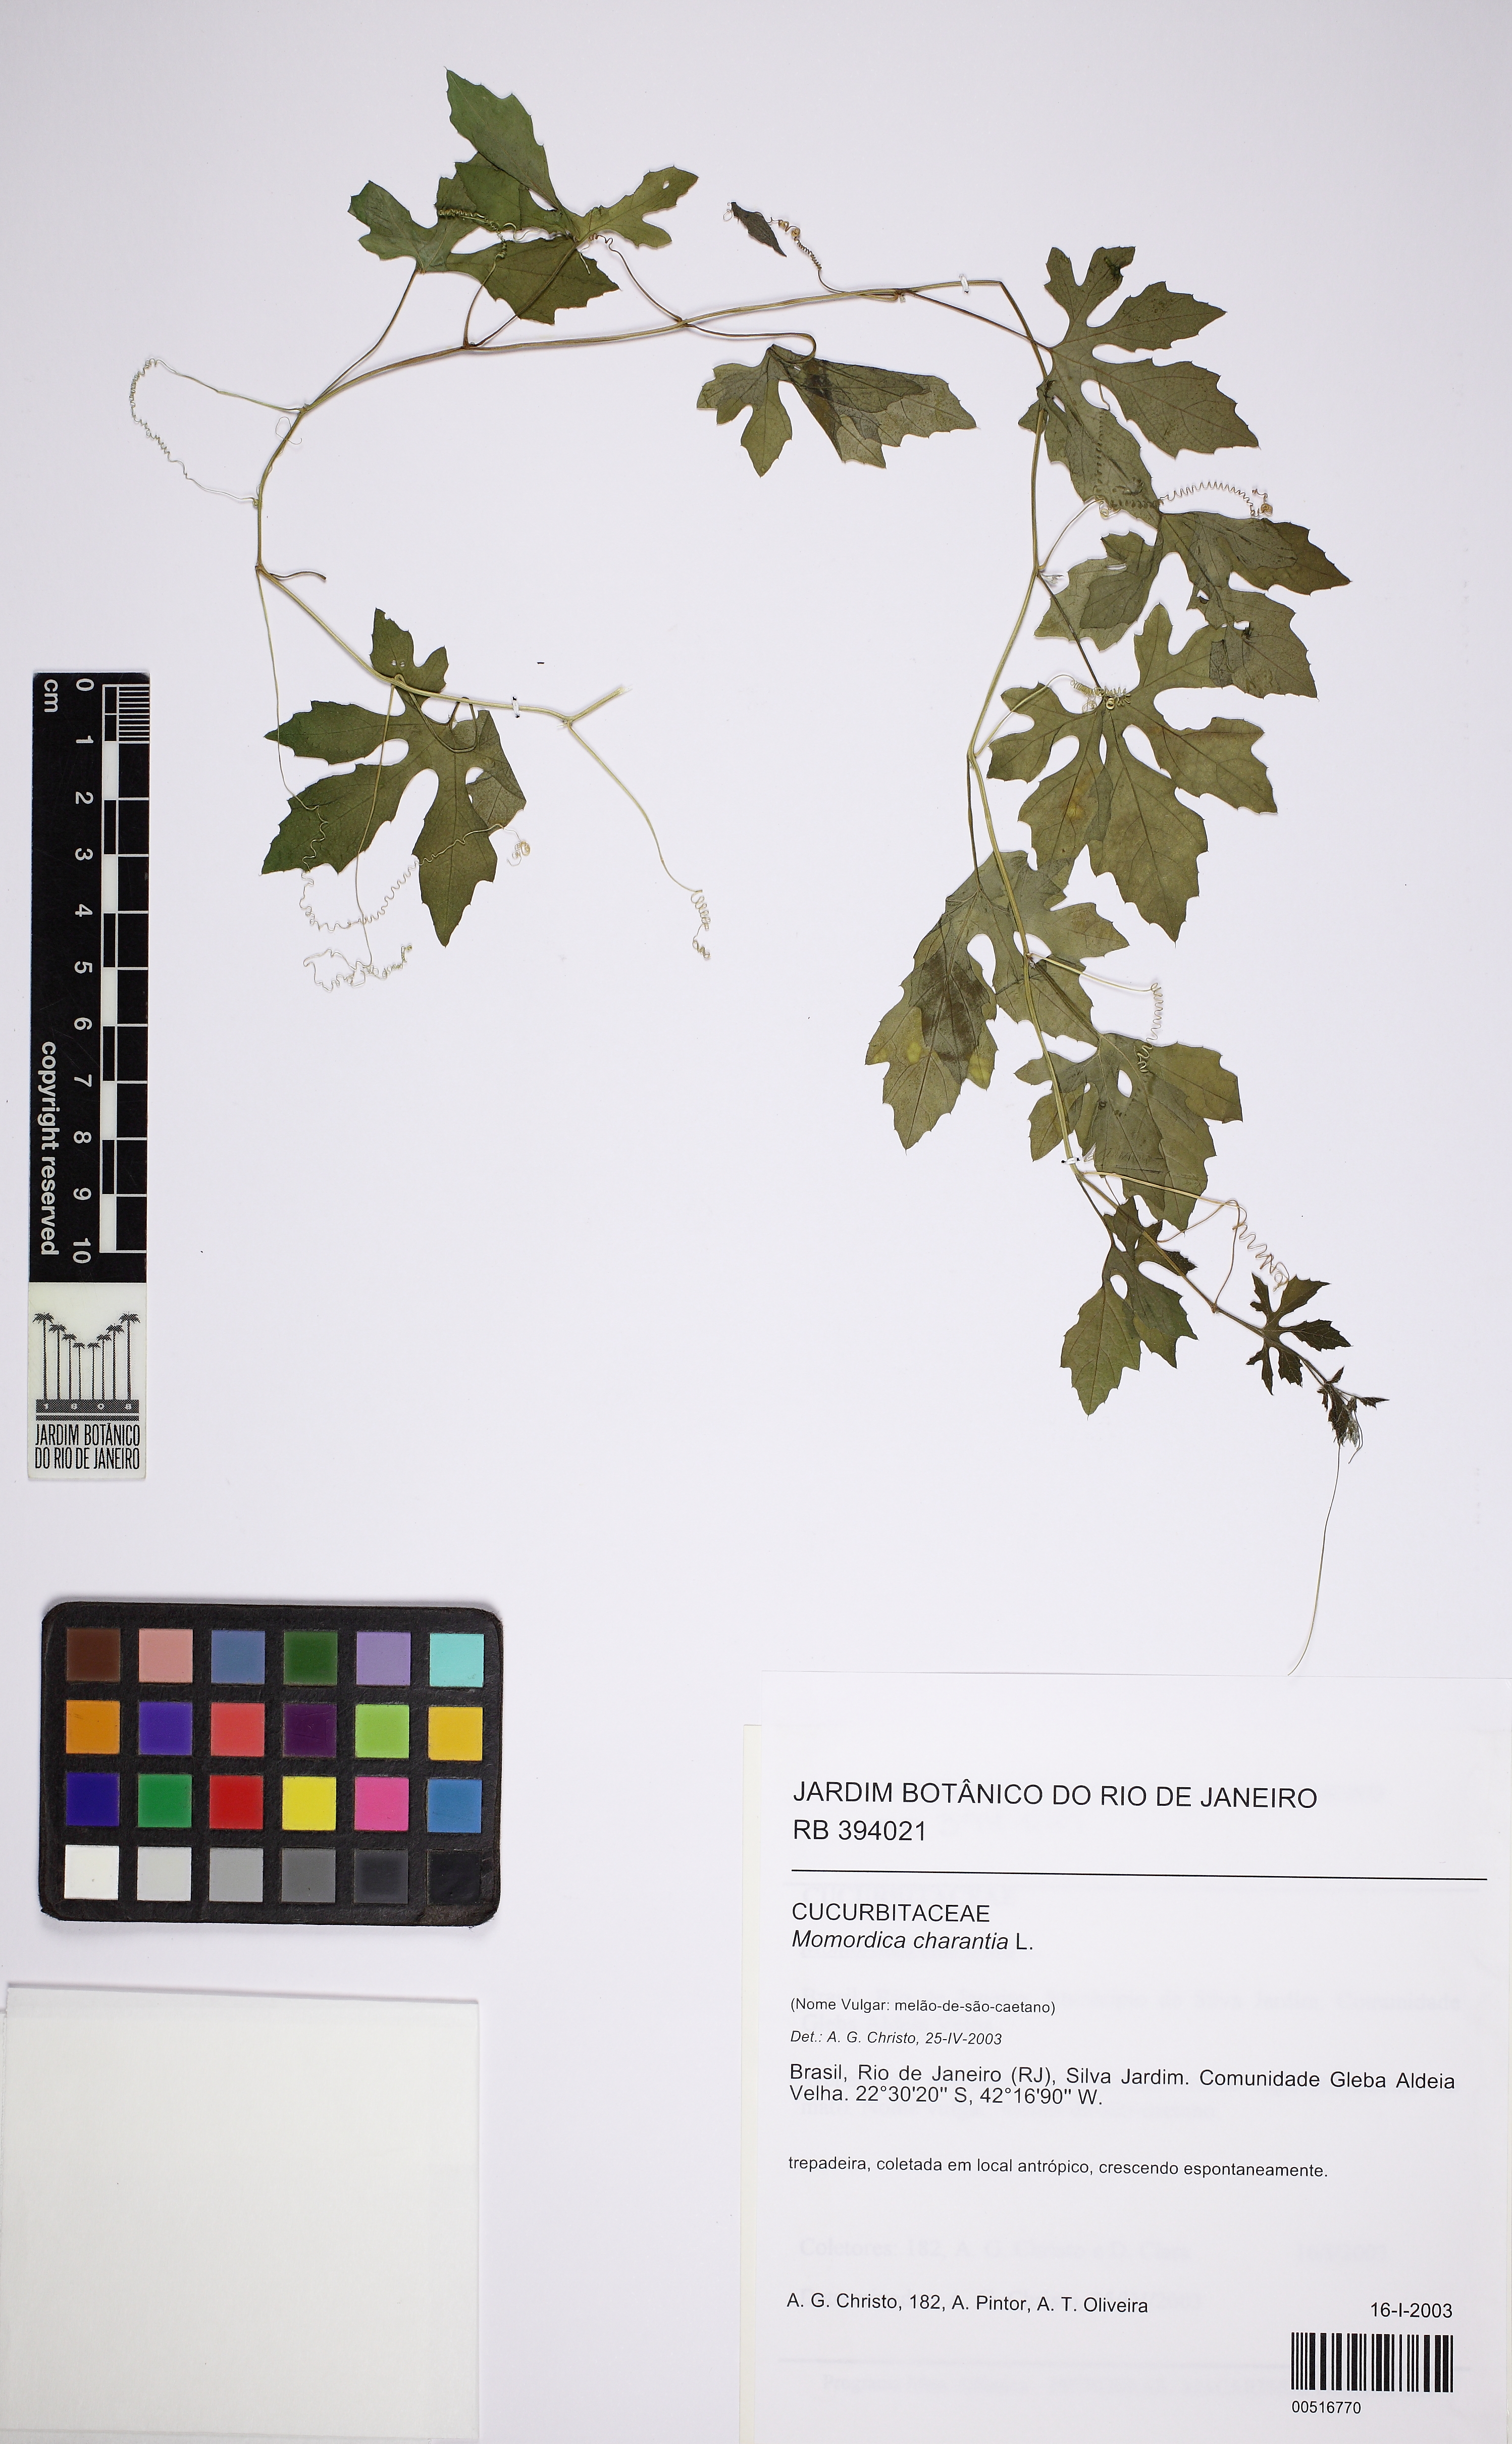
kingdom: Plantae
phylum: Tracheophyta
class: Magnoliopsida
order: Cucurbitales
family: Cucurbitaceae
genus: Momordica
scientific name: Momordica charantia
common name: Balsampear
